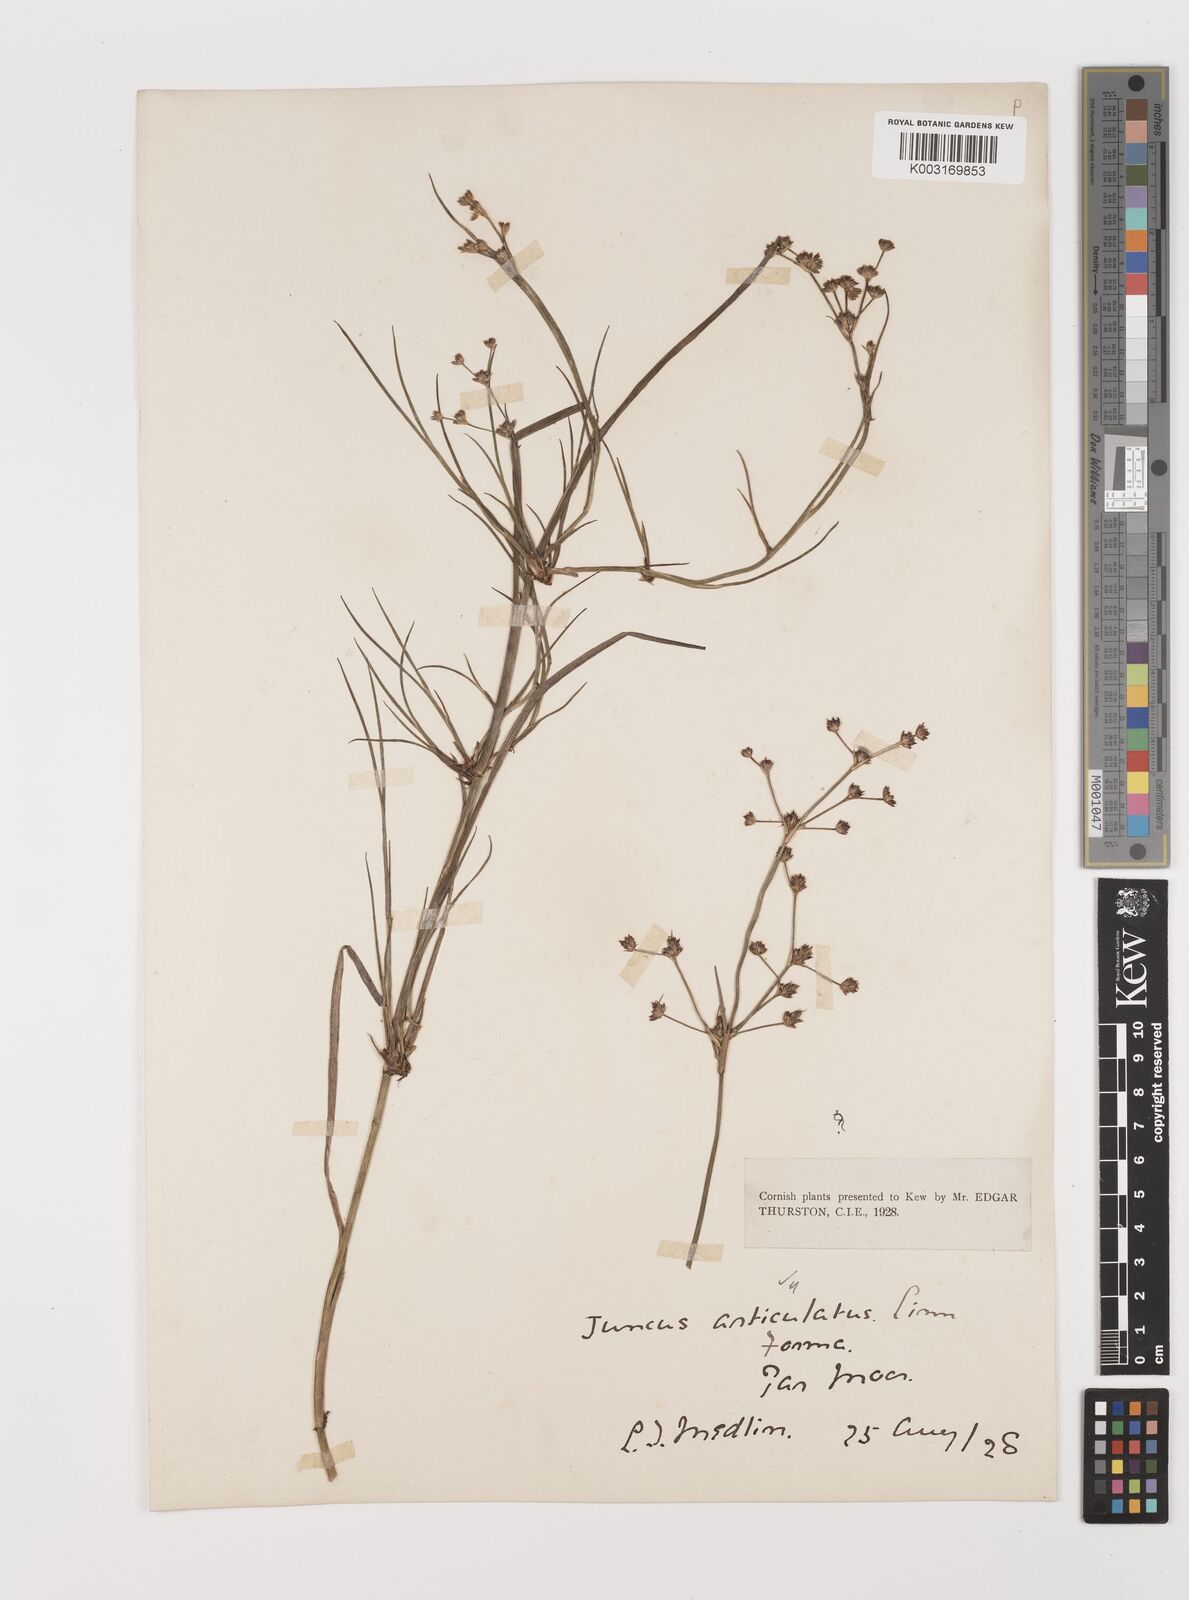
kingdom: Plantae
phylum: Tracheophyta
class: Liliopsida
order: Poales
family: Juncaceae
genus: Juncus
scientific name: Juncus articulatus
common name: Jointed rush
